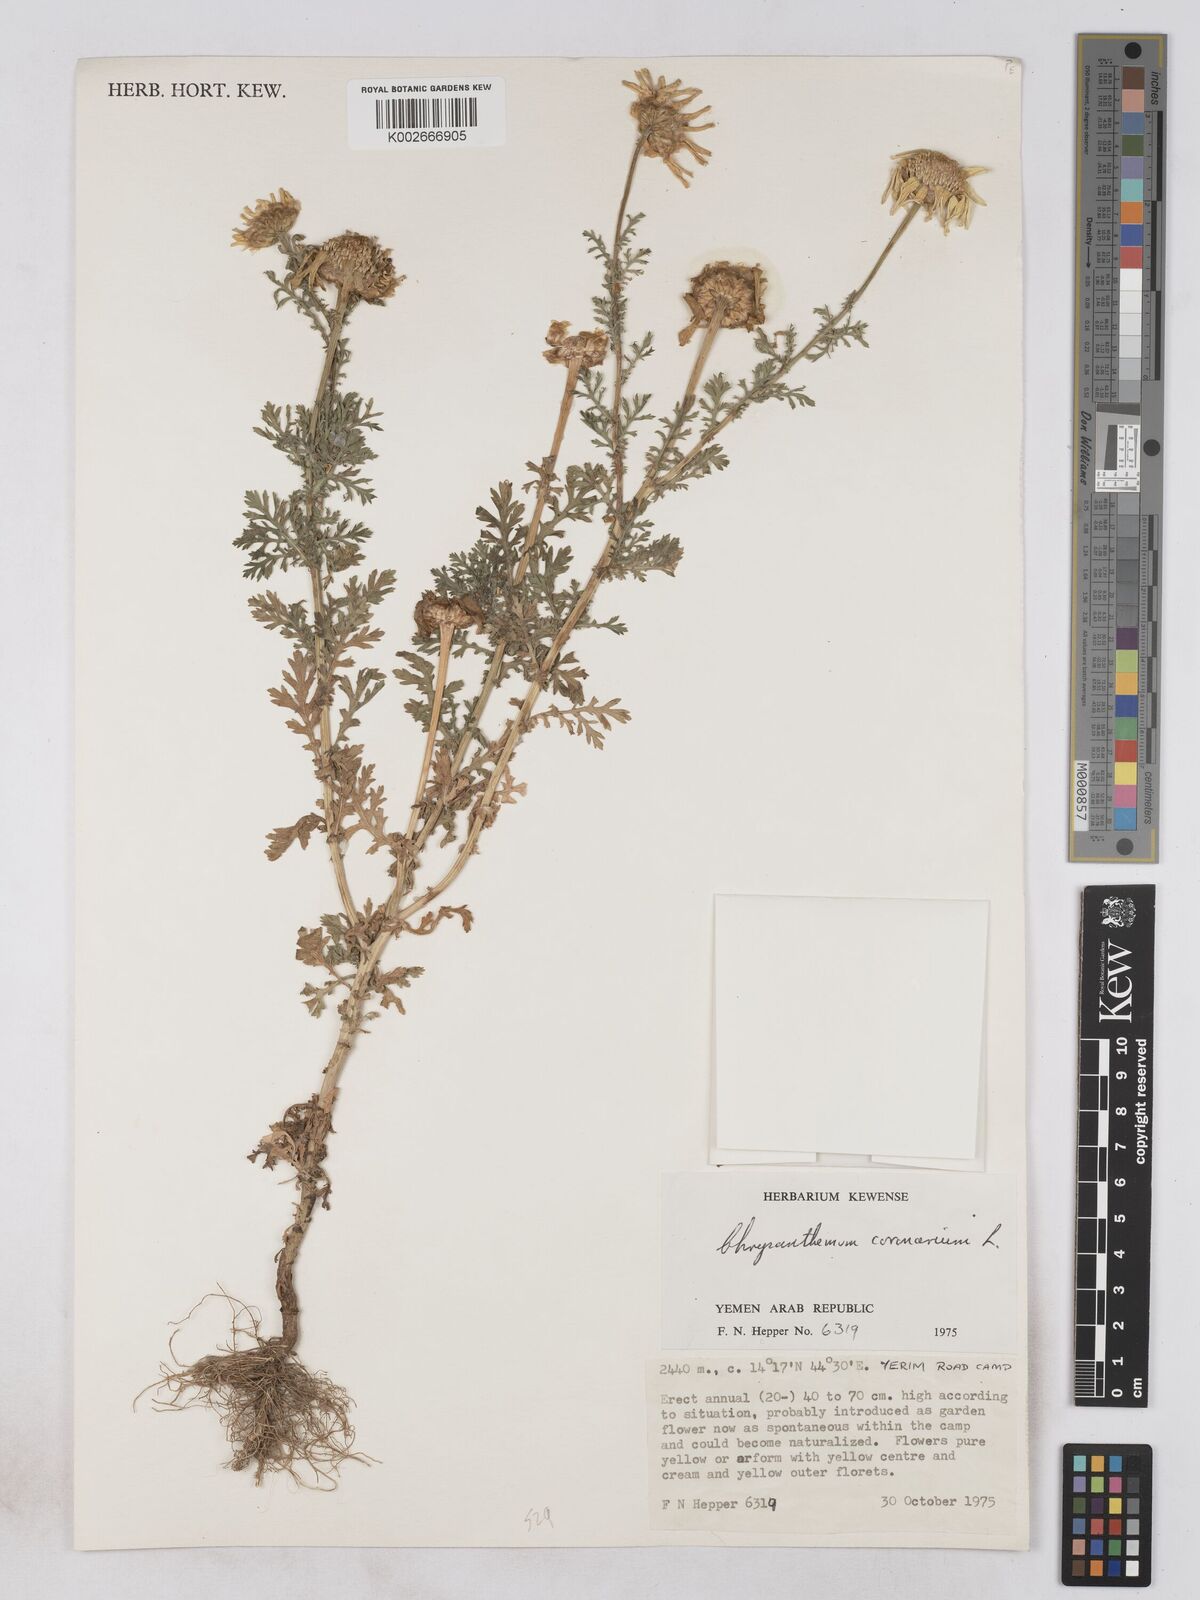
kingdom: Plantae
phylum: Tracheophyta
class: Magnoliopsida
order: Asterales
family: Asteraceae
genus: Glebionis
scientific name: Glebionis coronaria
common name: Crowndaisy
